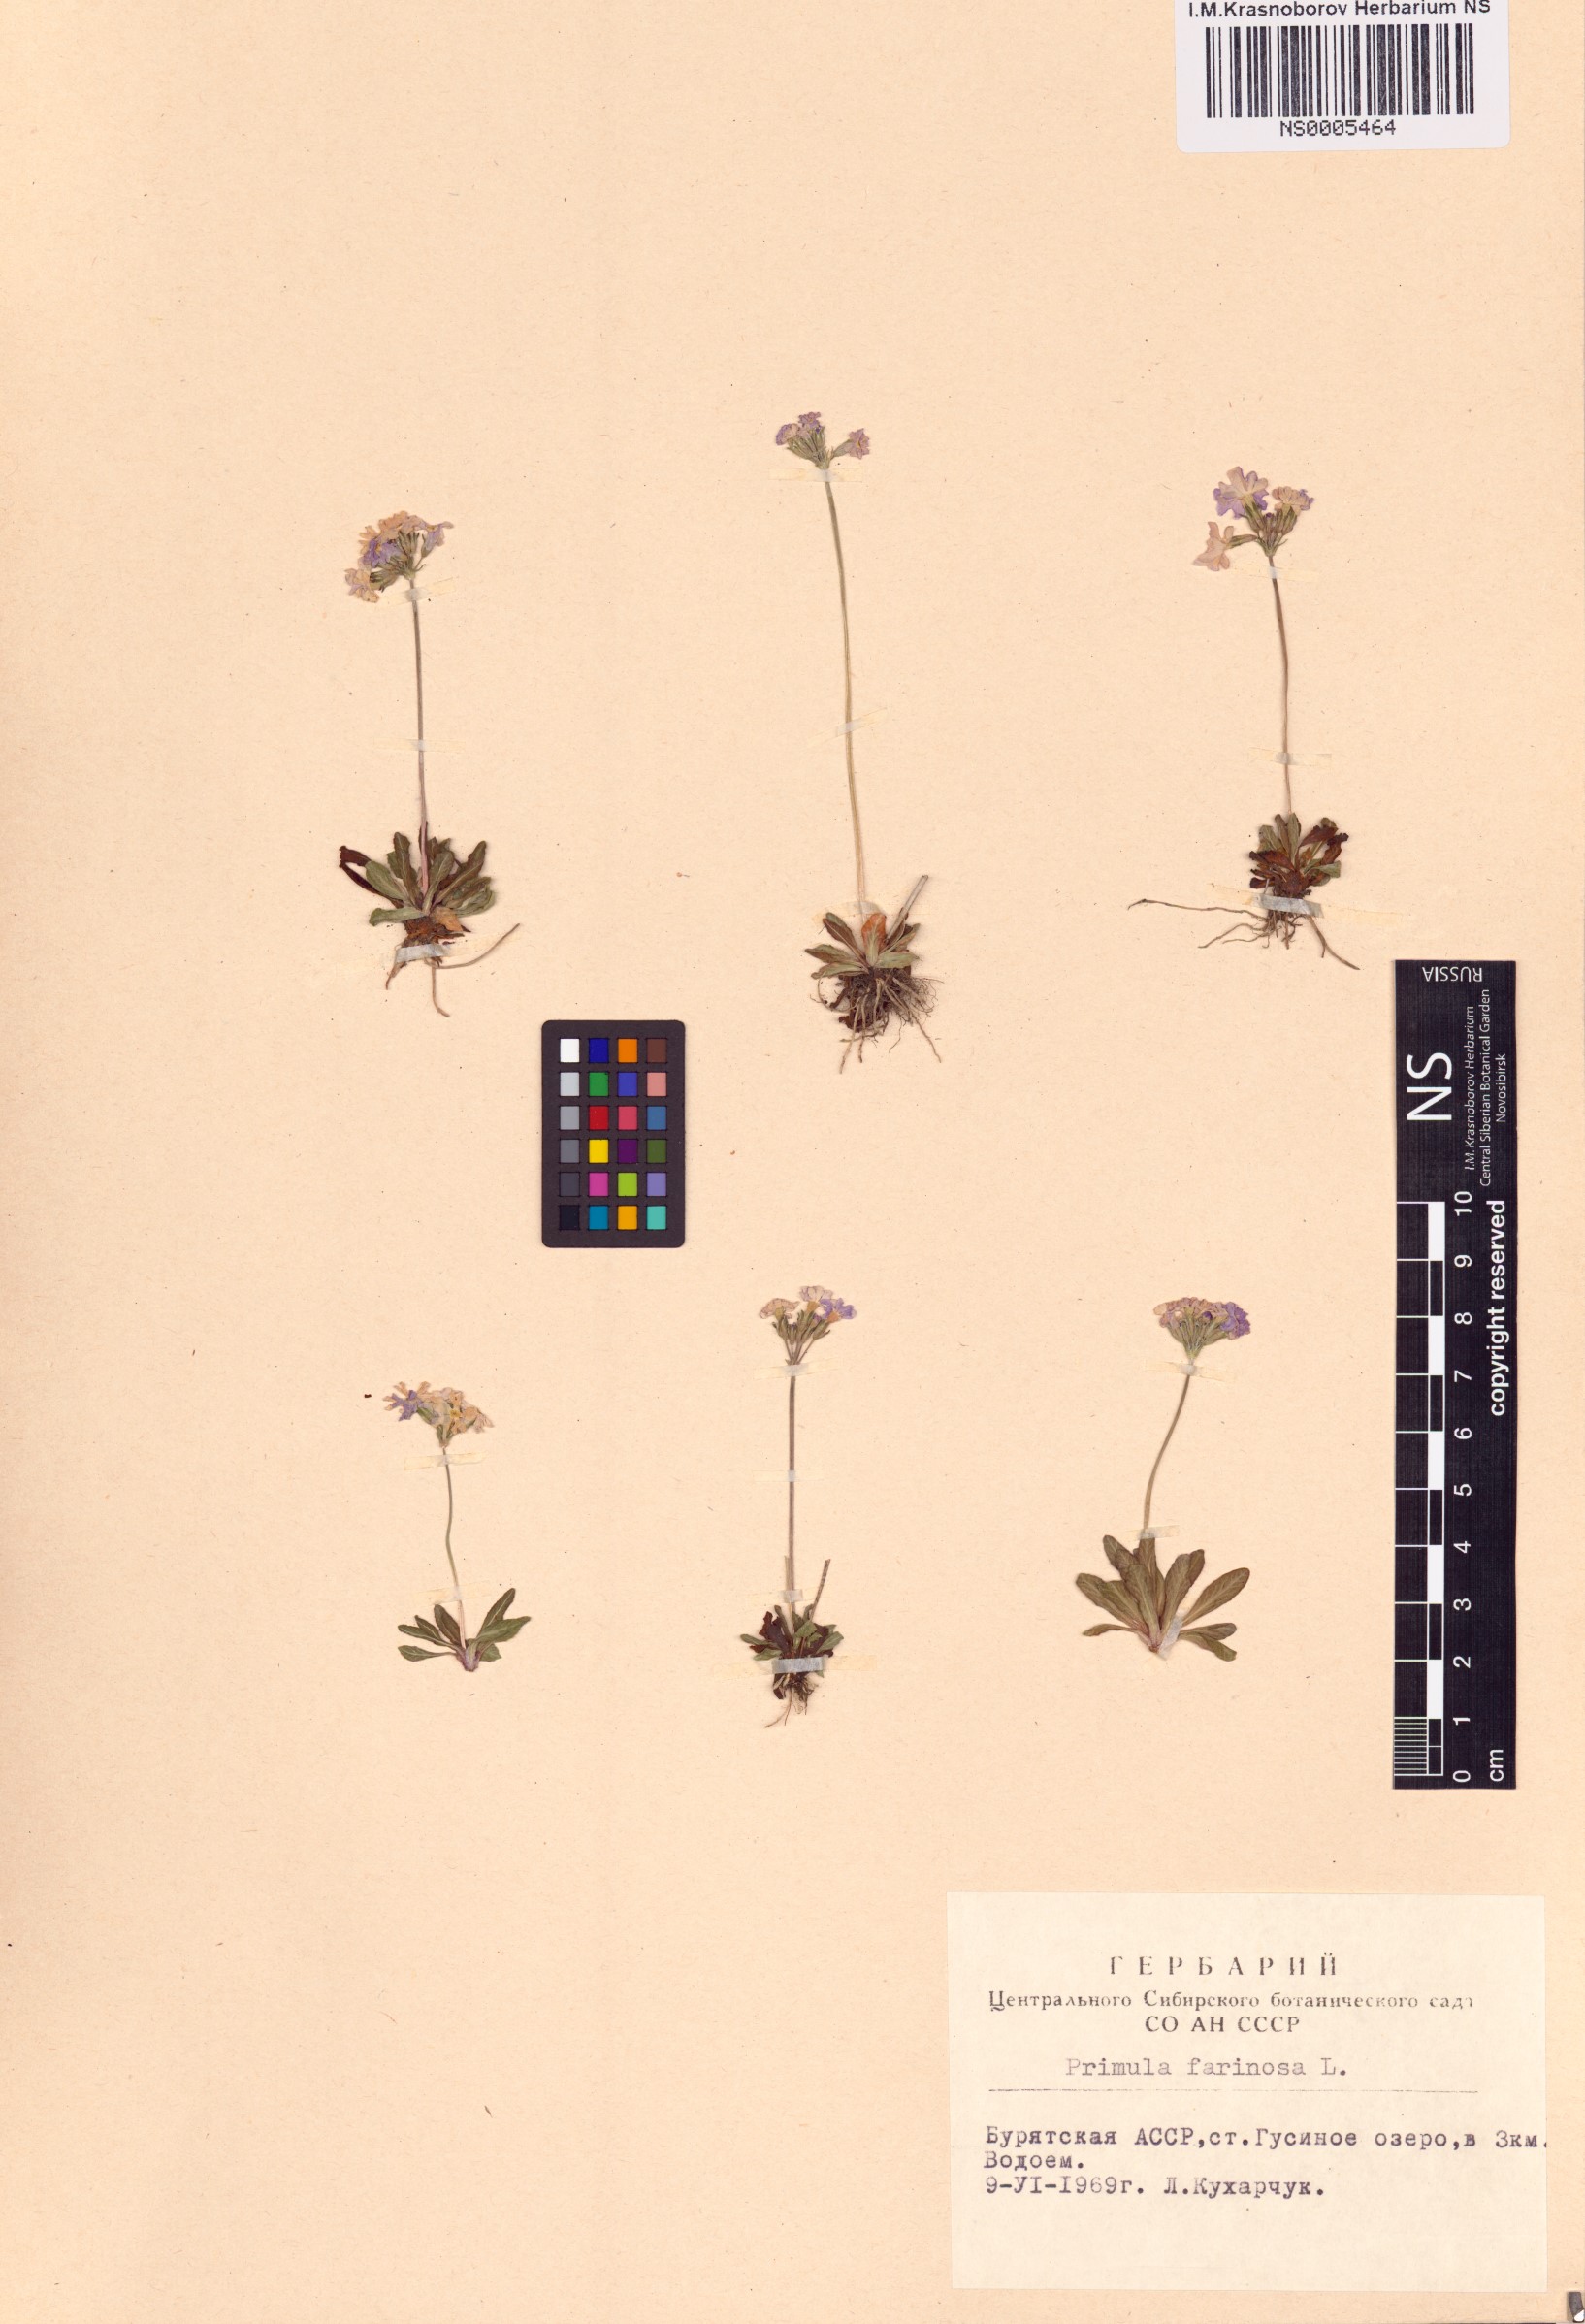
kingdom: Plantae
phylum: Tracheophyta
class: Magnoliopsida
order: Ericales
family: Primulaceae
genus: Primula
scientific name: Primula farinosa
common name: Bird's-eye primrose
